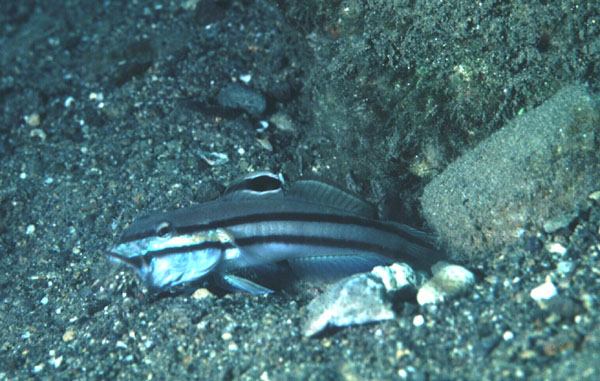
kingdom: Animalia
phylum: Chordata
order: Perciformes
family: Gobiidae
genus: Valenciennea
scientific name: Valenciennea helsdingenii
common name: Twostripe goby
